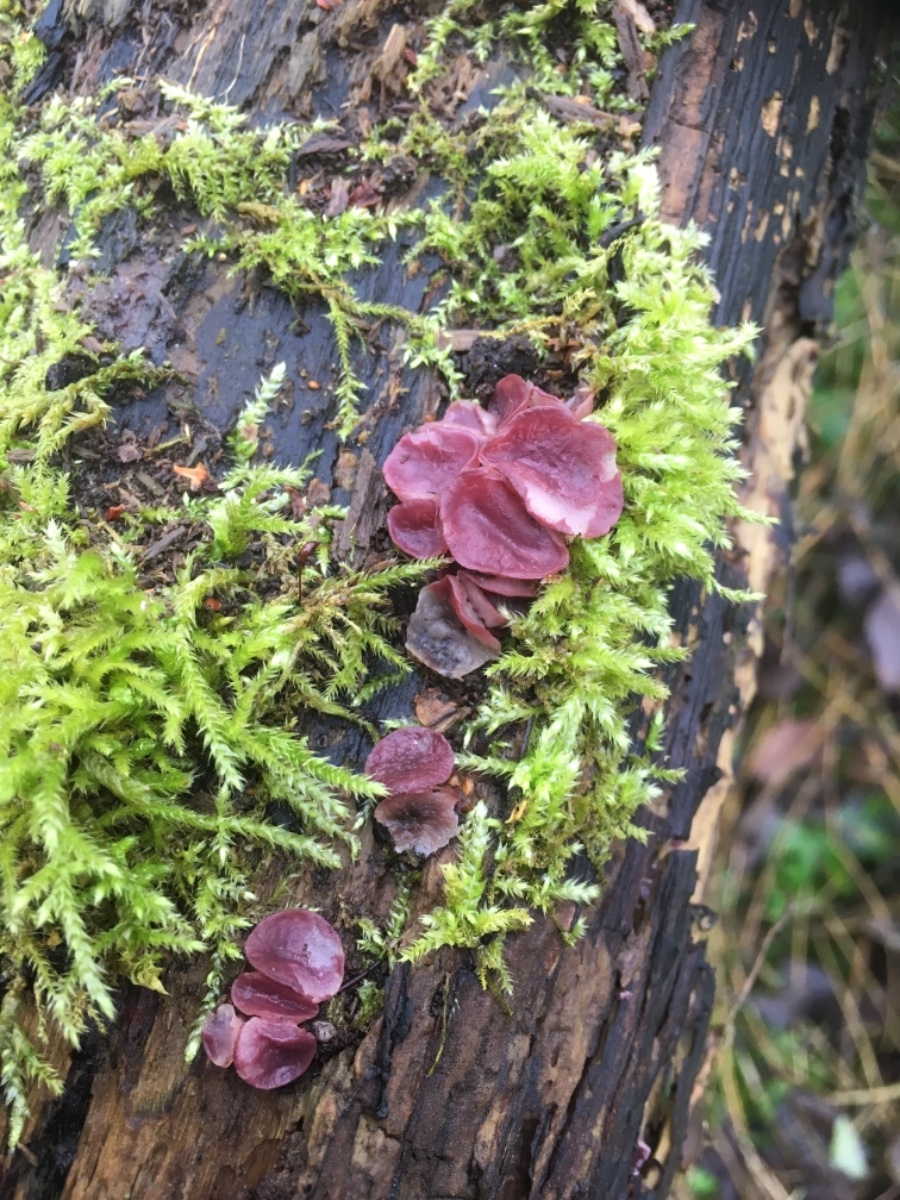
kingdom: Fungi
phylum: Ascomycota
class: Leotiomycetes
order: Helotiales
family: Gelatinodiscaceae
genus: Ascocoryne
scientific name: Ascocoryne cylichnium
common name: stor sejskive
